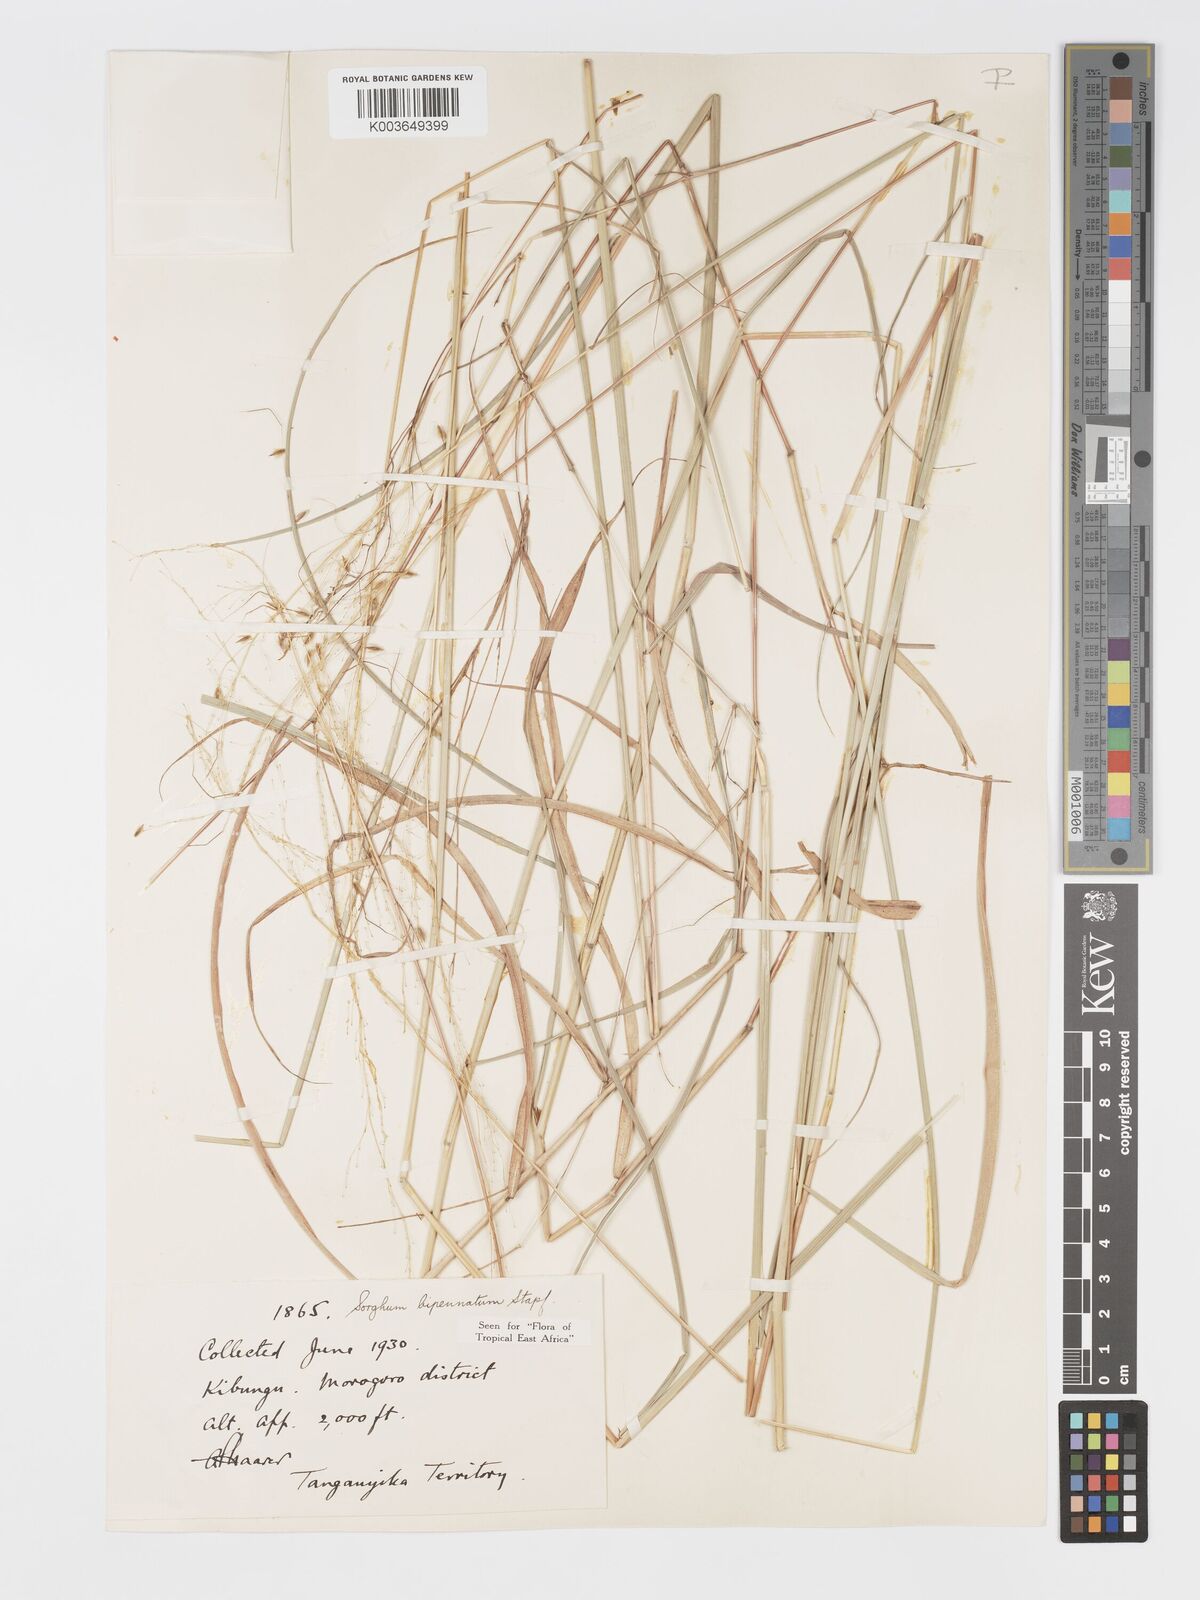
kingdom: Plantae
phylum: Tracheophyta
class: Liliopsida
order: Poales
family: Poaceae
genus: Sorghastrum
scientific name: Sorghastrum incompletum
